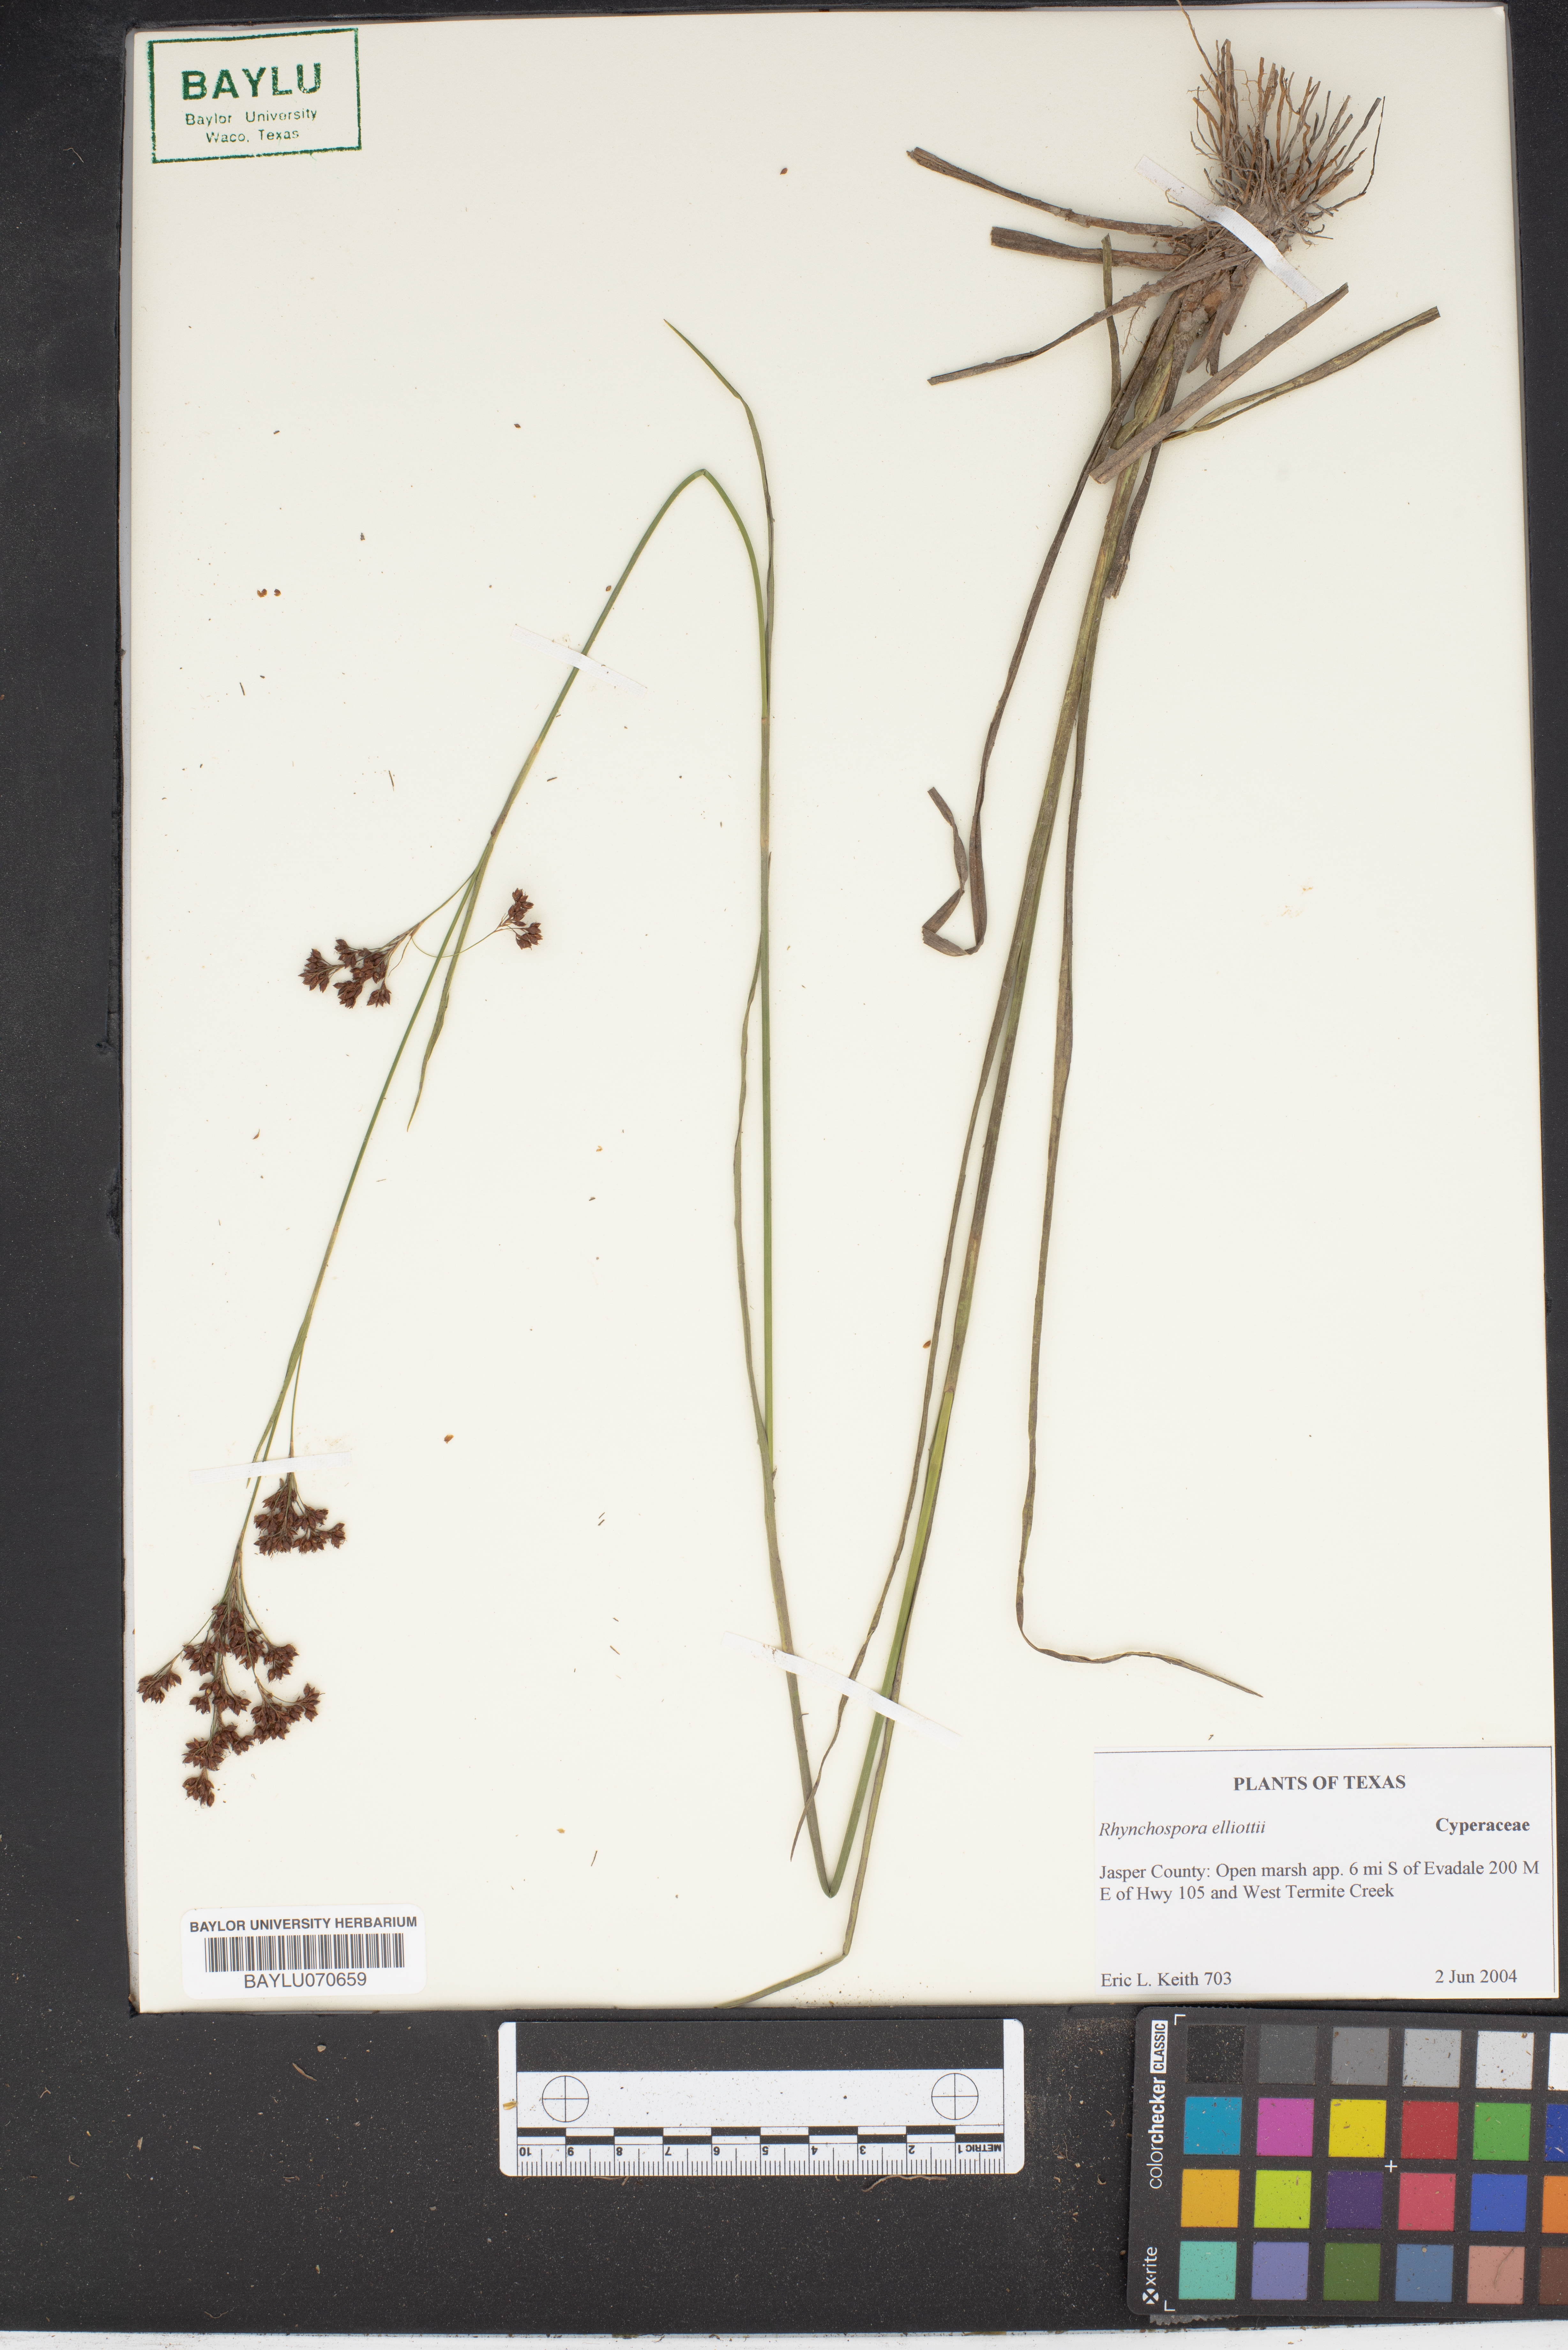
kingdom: Plantae
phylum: Tracheophyta
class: Liliopsida
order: Poales
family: Cyperaceae
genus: Rhynchospora
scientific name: Rhynchospora elliottii
